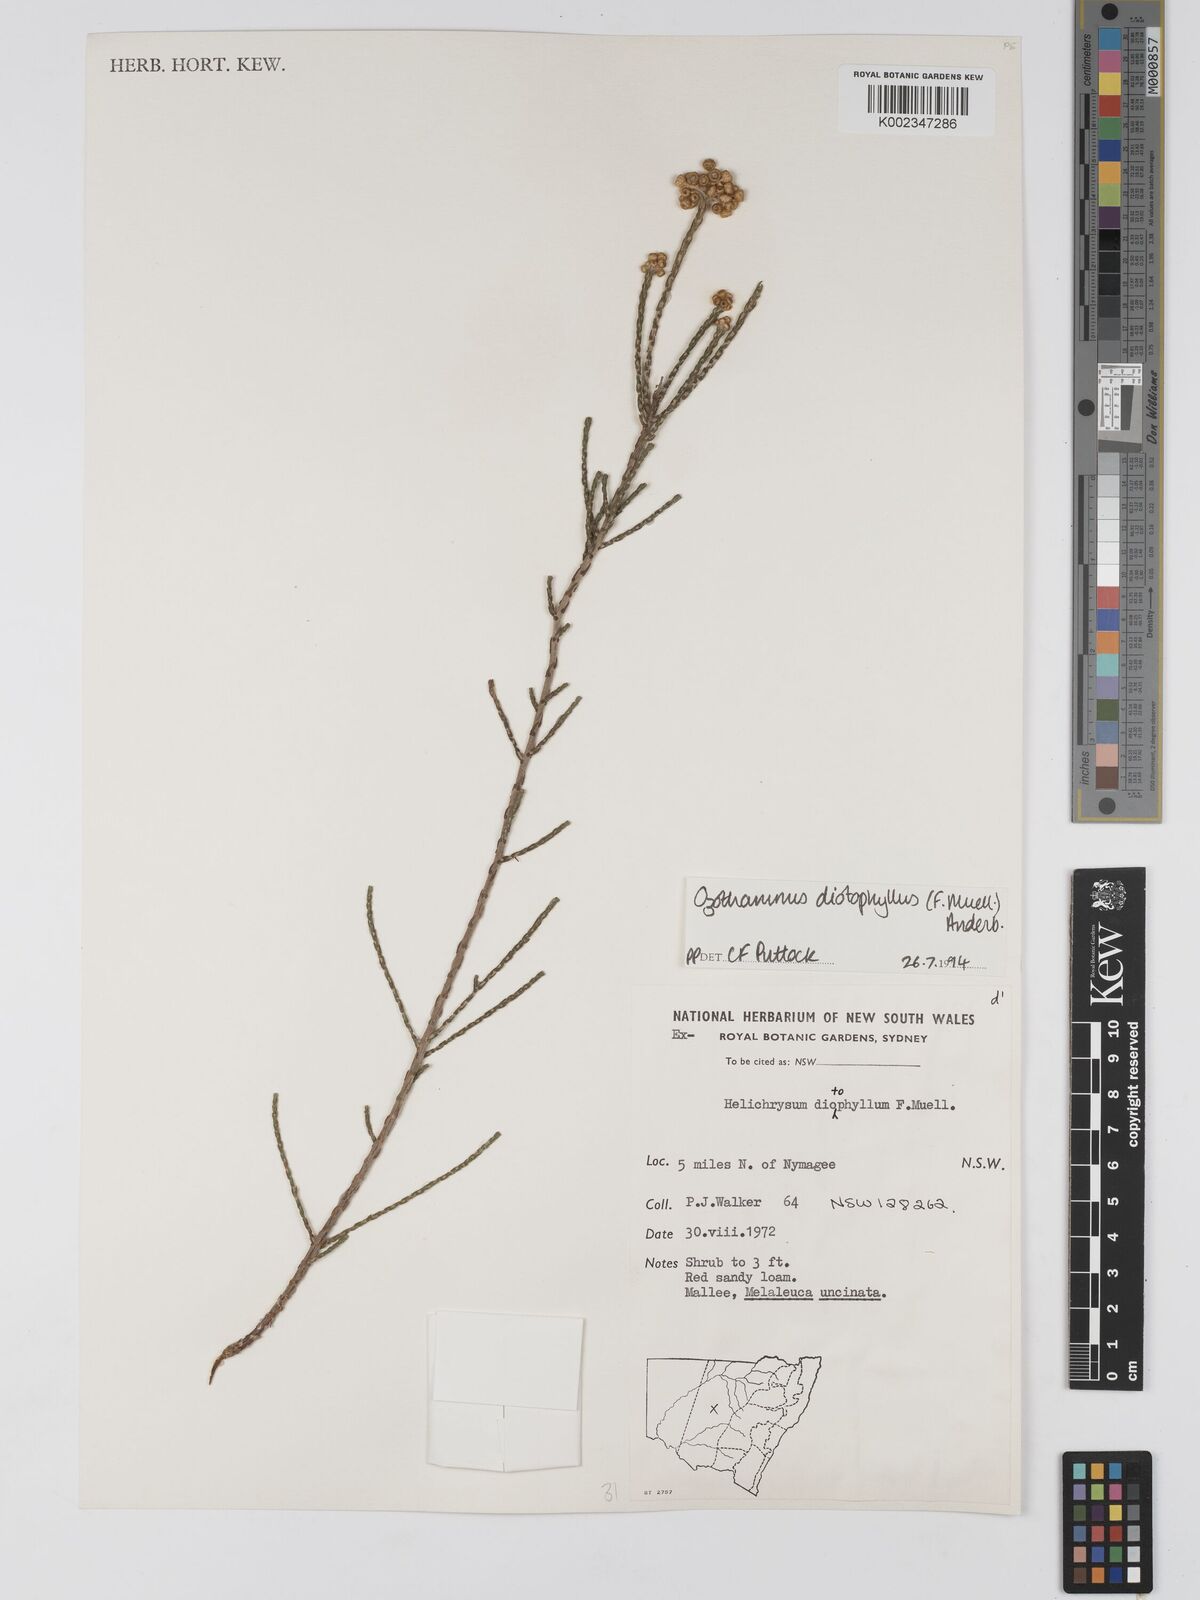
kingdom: Plantae
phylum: Tracheophyta
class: Magnoliopsida
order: Asterales
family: Asteraceae
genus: Ozothamnus
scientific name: Ozothamnus diotophyllus
